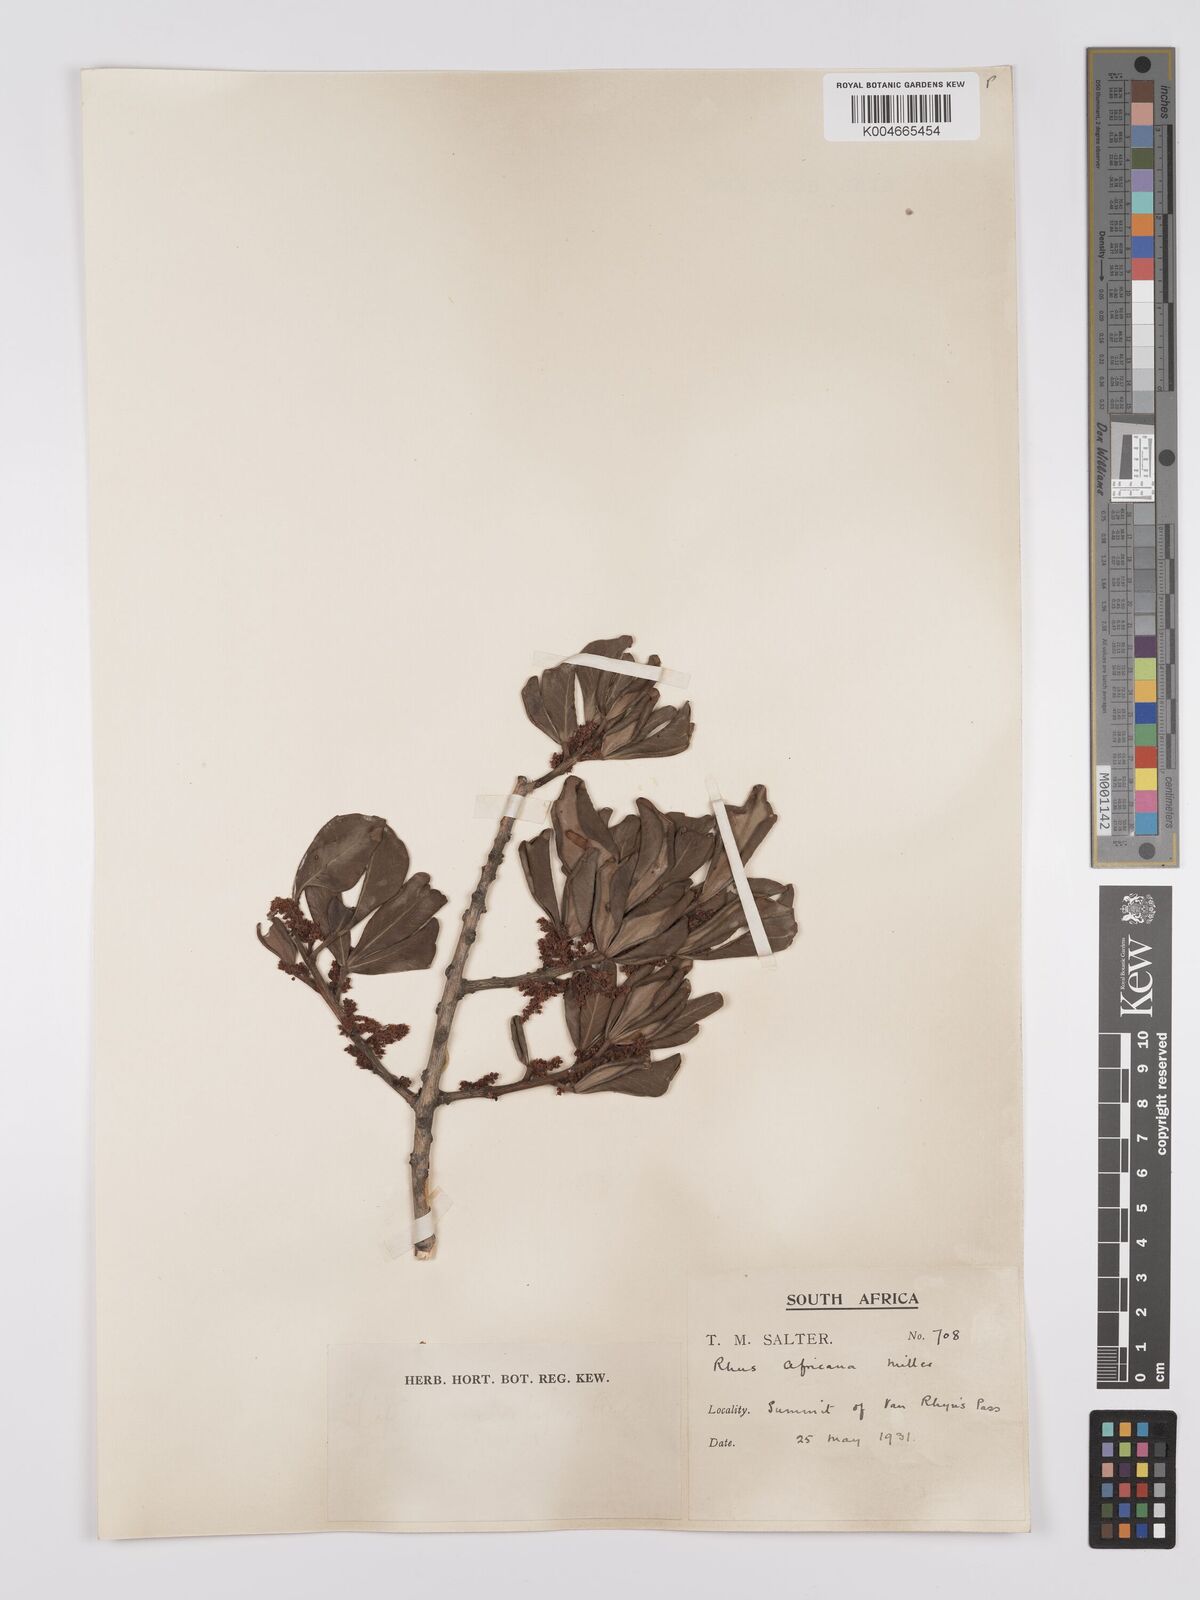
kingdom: Plantae
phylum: Tracheophyta
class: Magnoliopsida
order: Sapindales
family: Anacardiaceae
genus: Searsia
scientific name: Searsia lucida
